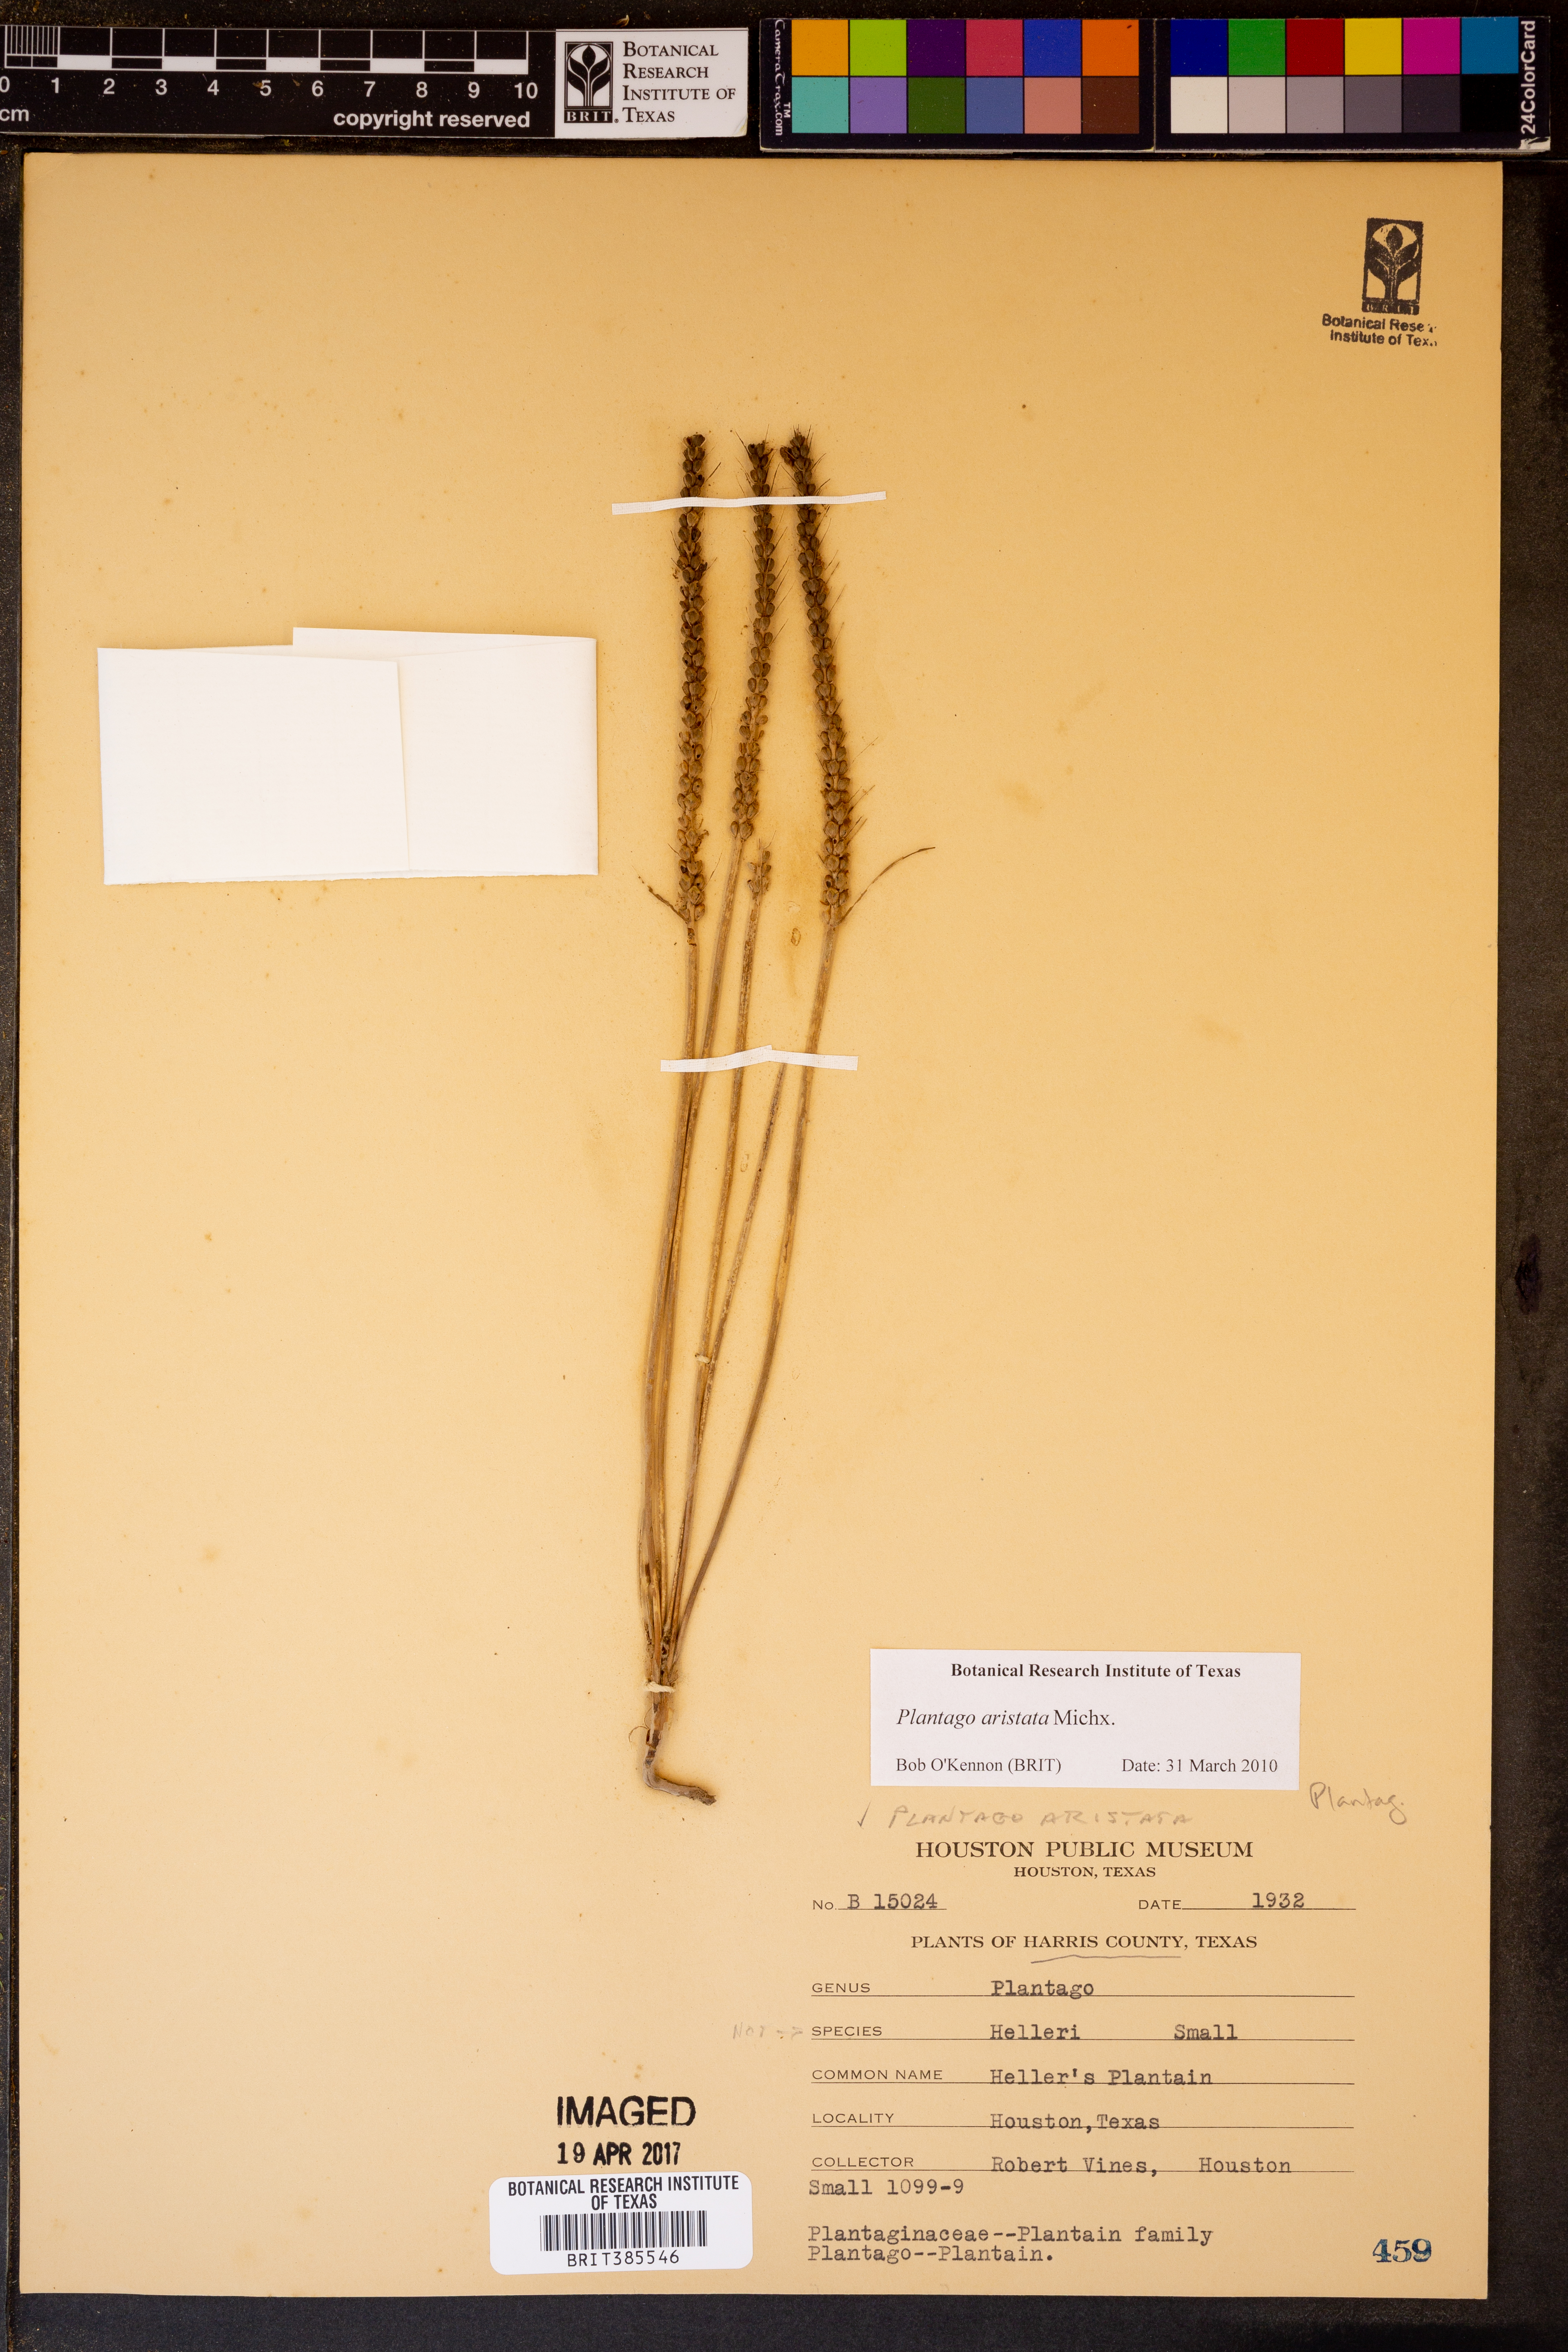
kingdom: Plantae
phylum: Tracheophyta
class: Magnoliopsida
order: Lamiales
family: Plantaginaceae
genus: Plantago
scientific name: Plantago aristata
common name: Bracted plantain
